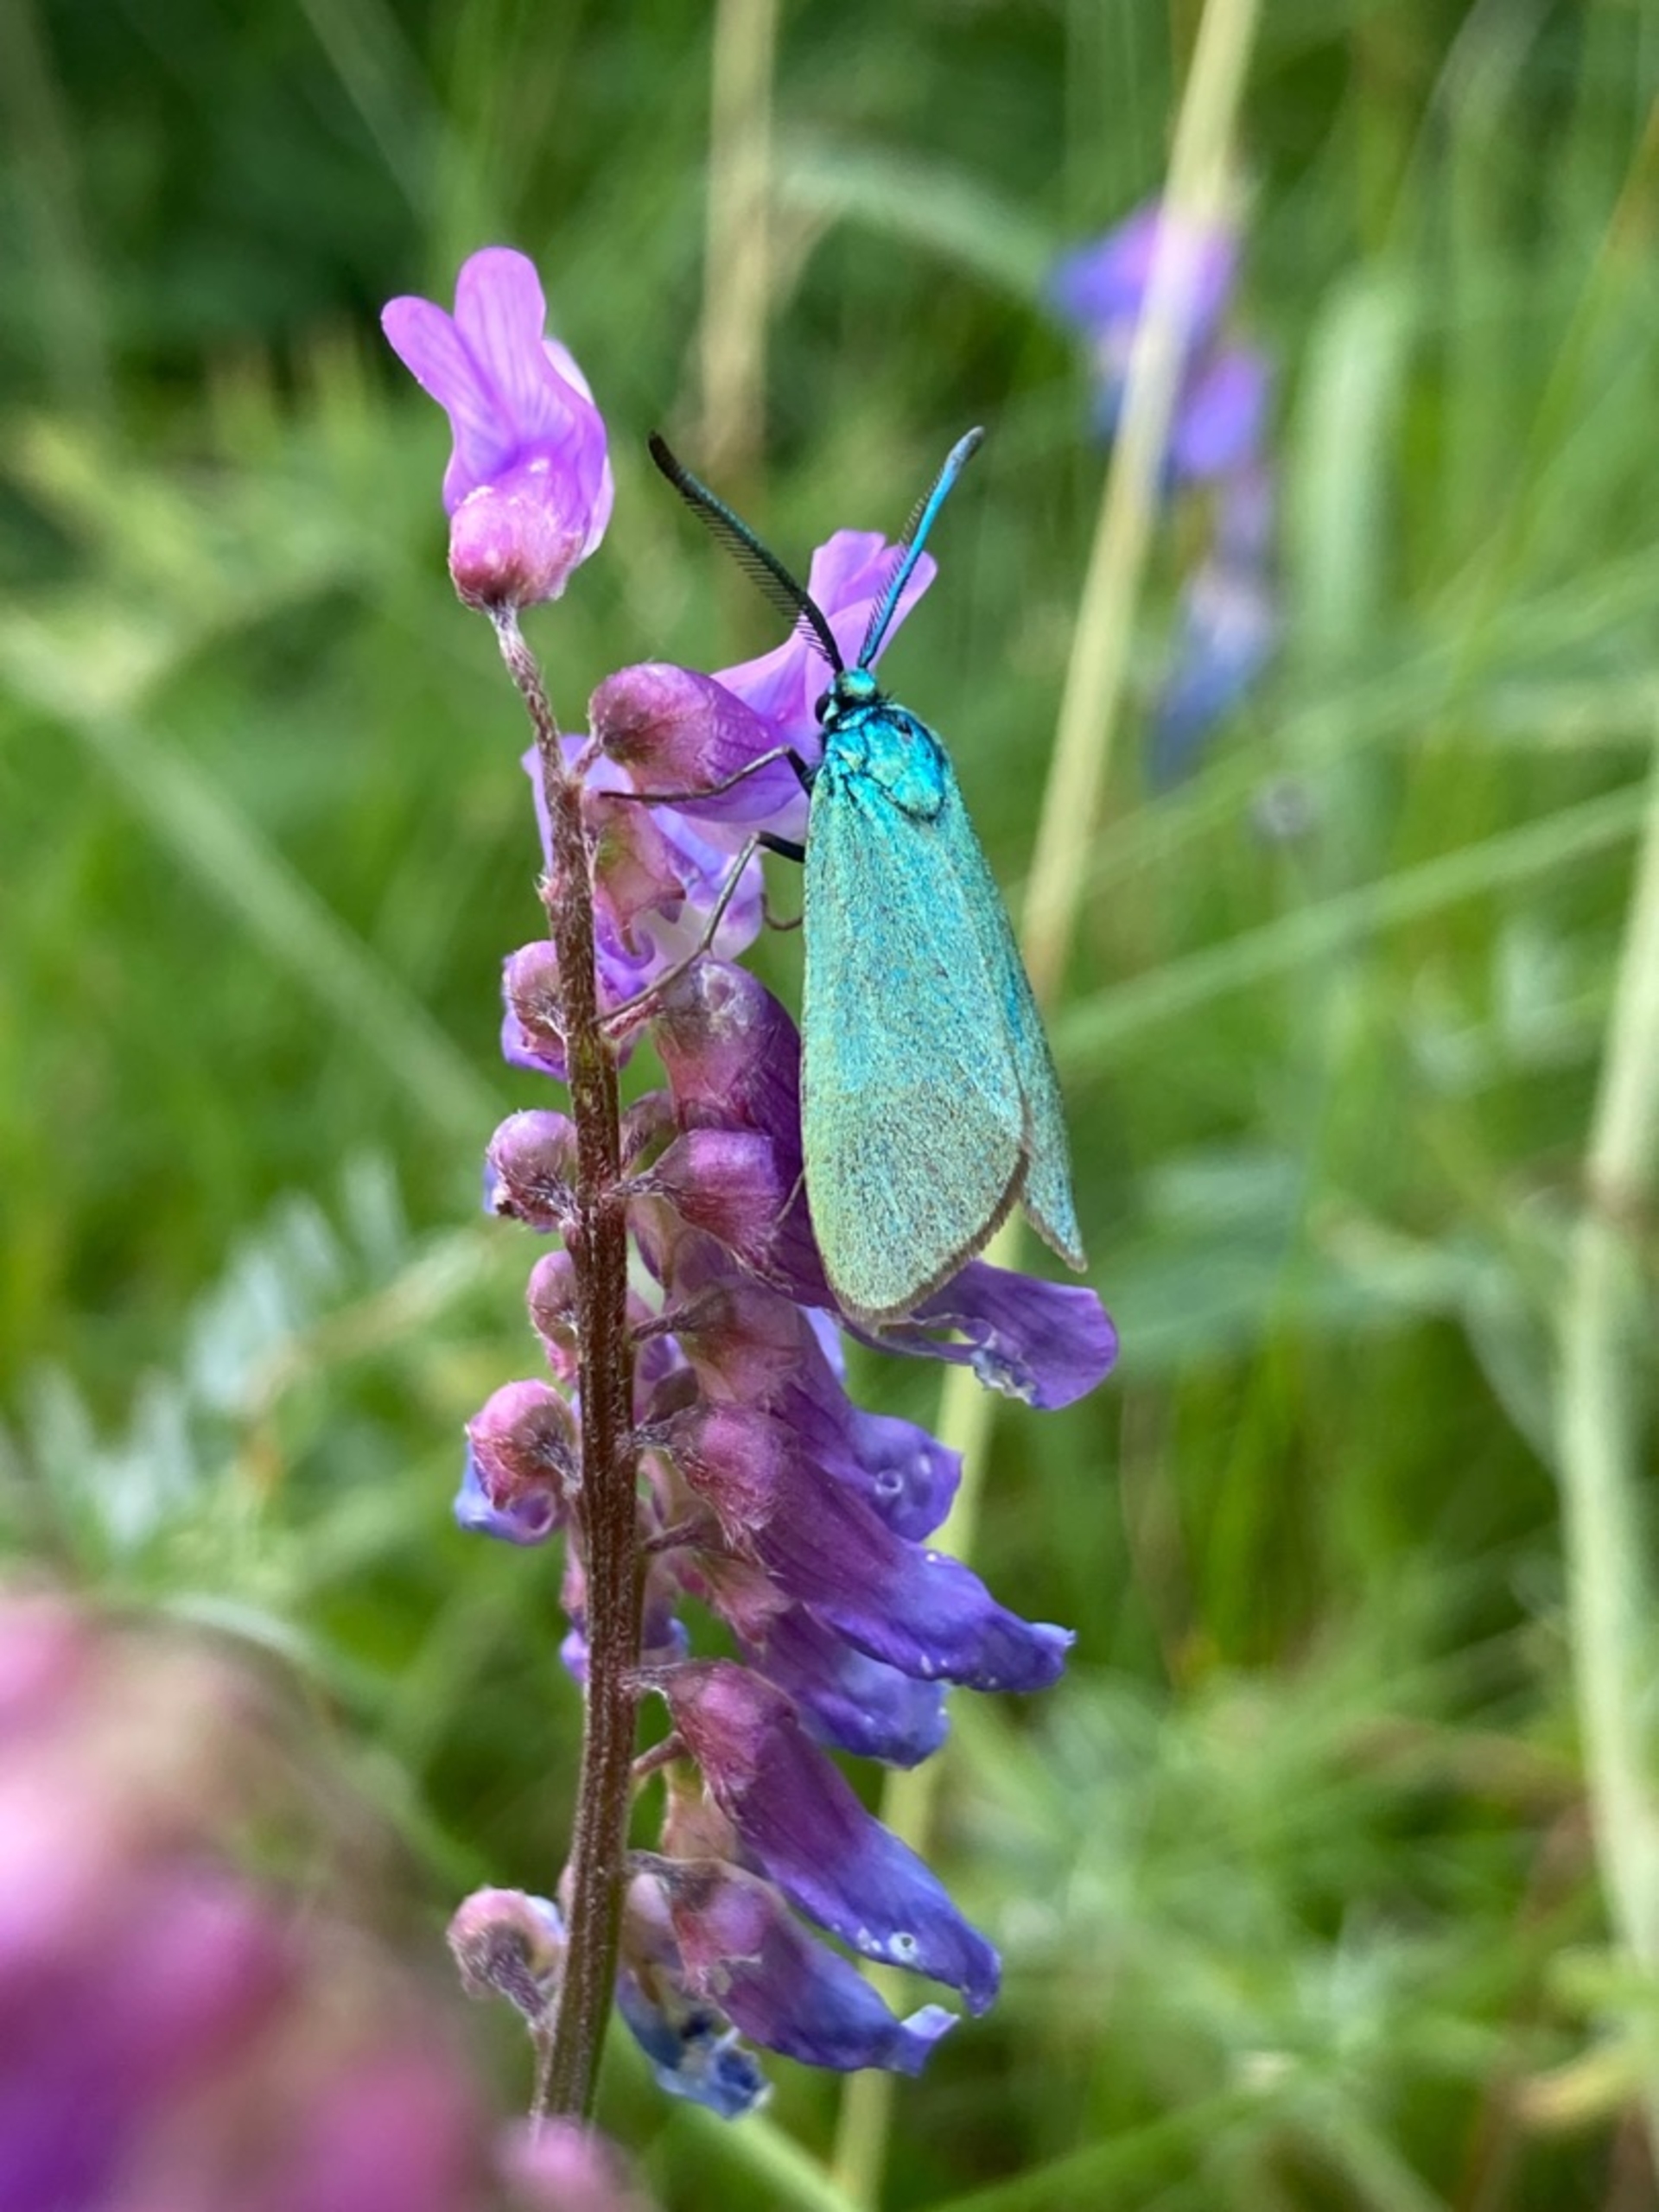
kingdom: Animalia
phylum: Arthropoda
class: Insecta
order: Lepidoptera
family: Zygaenidae
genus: Adscita
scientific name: Adscita statices
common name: Metalvinge
